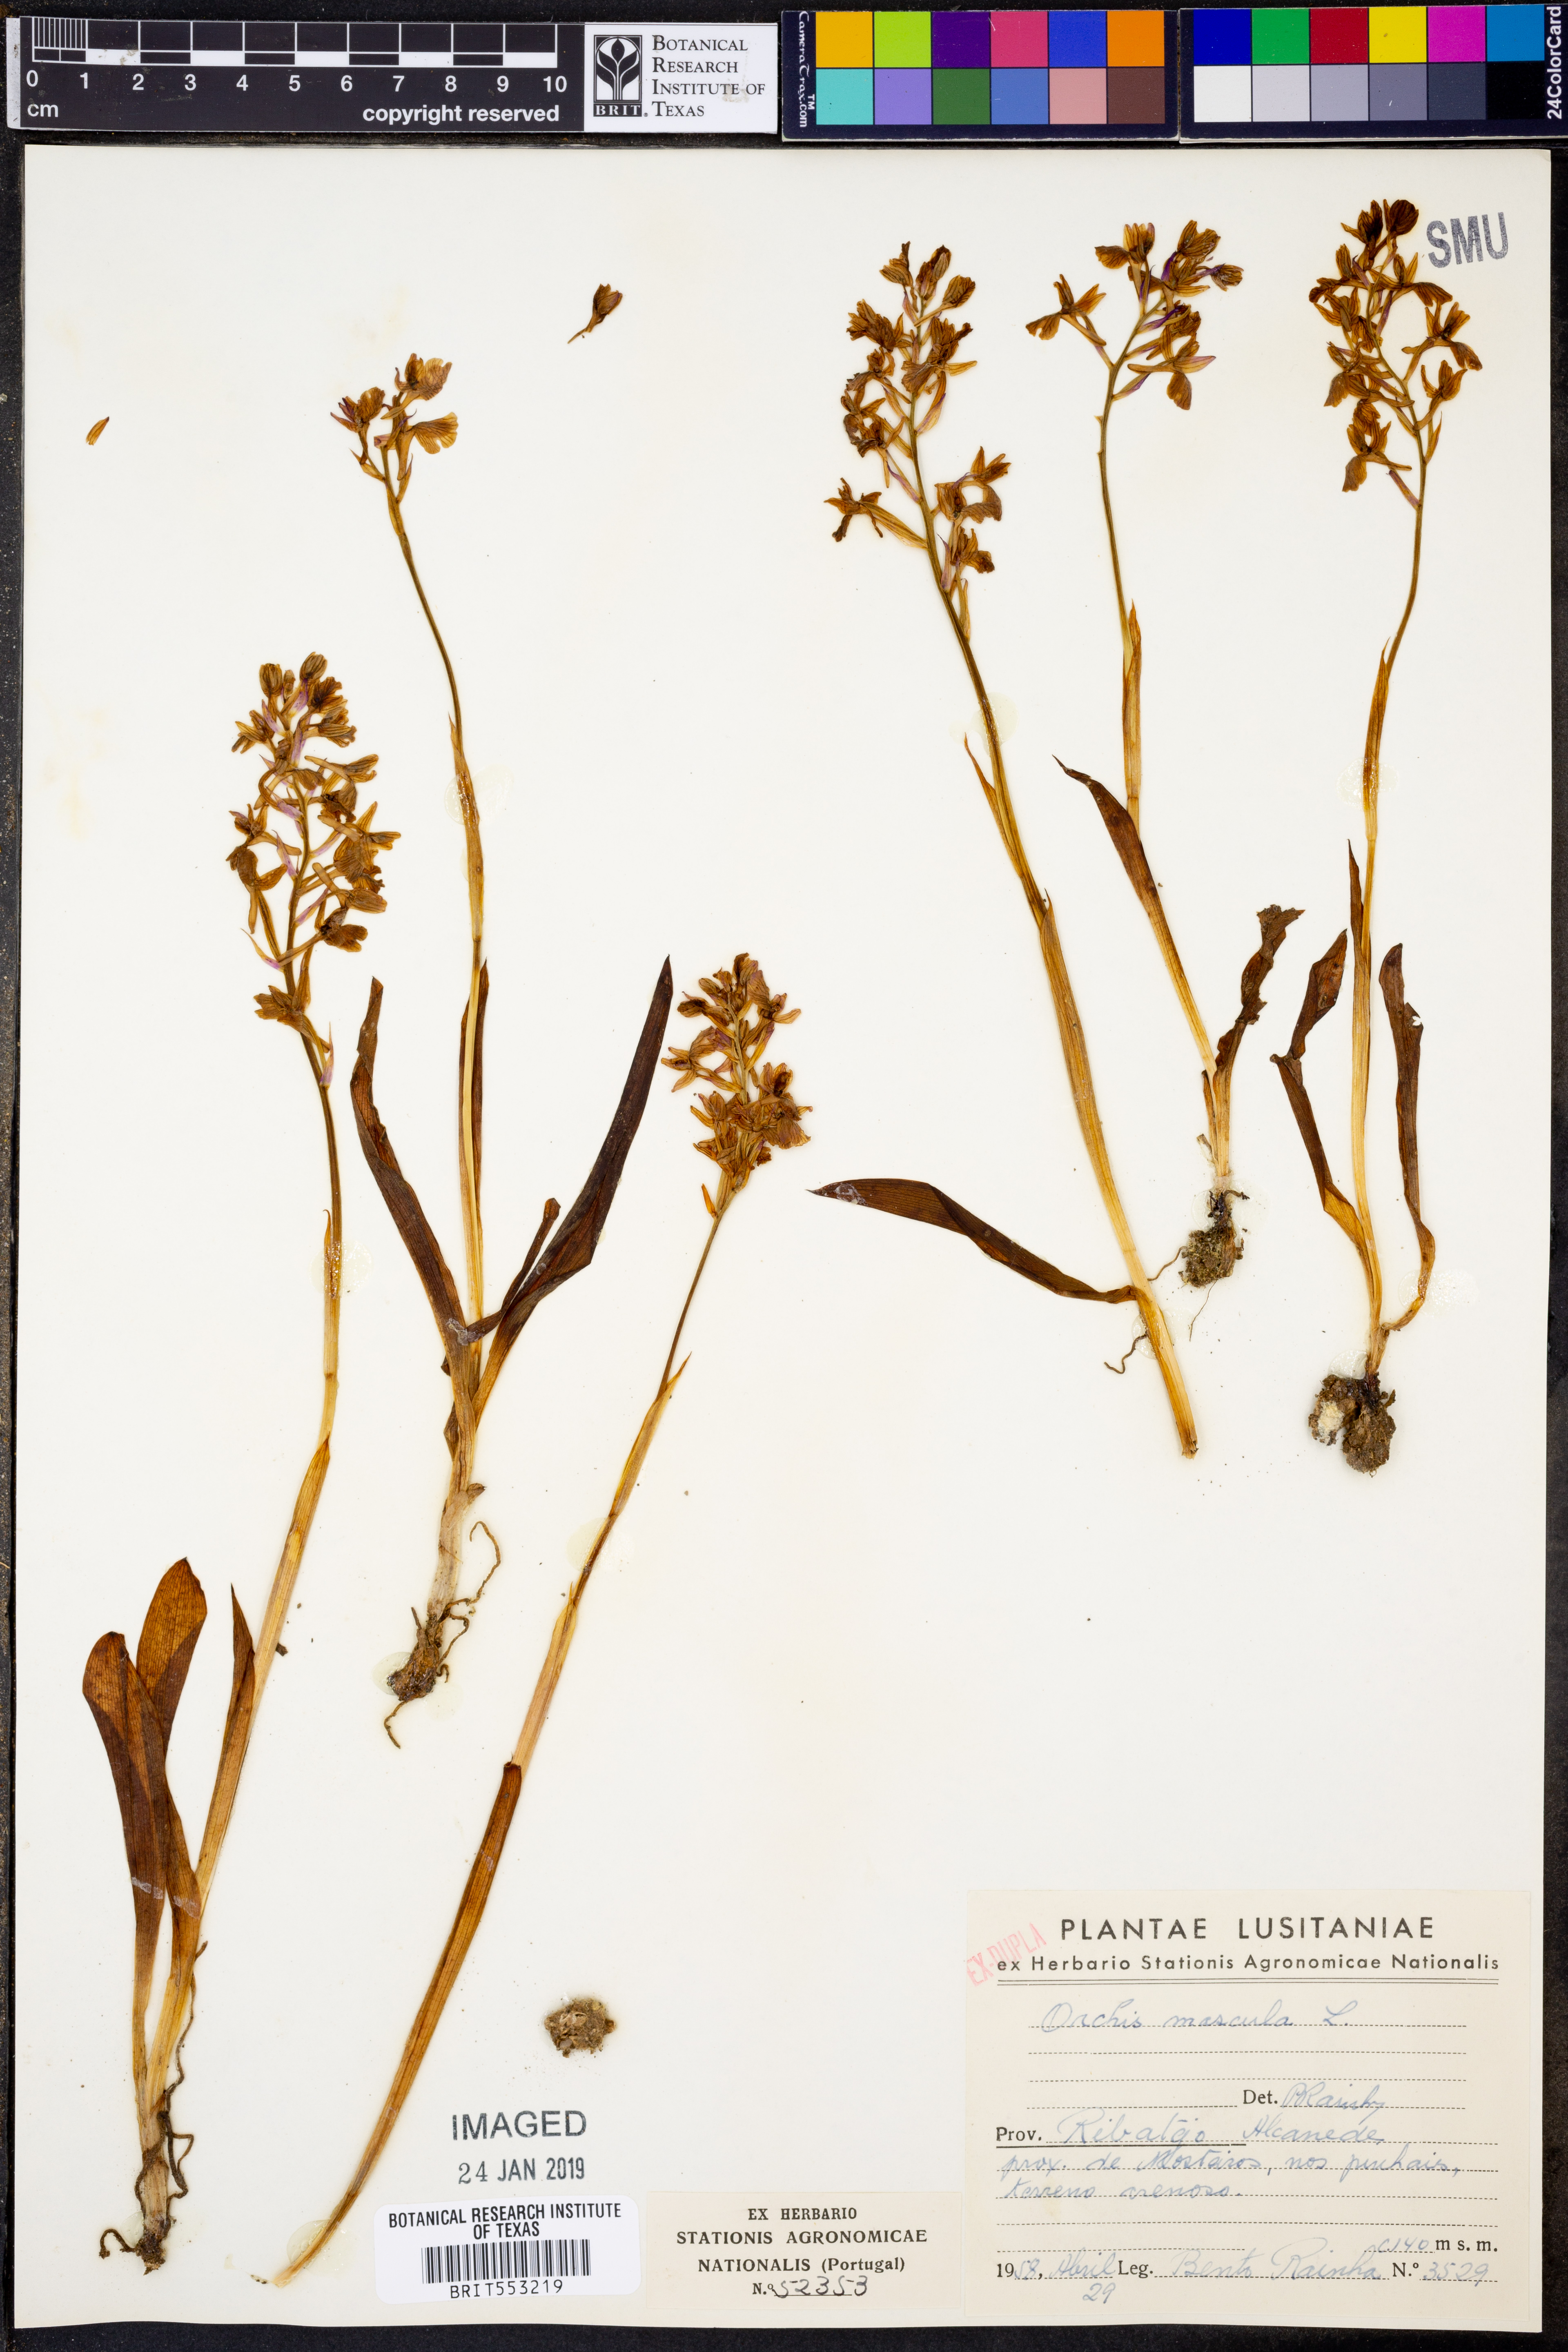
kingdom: Plantae
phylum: Tracheophyta
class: Liliopsida
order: Asparagales
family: Orchidaceae
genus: Orchis
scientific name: Orchis mascula
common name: Early-purple orchid
